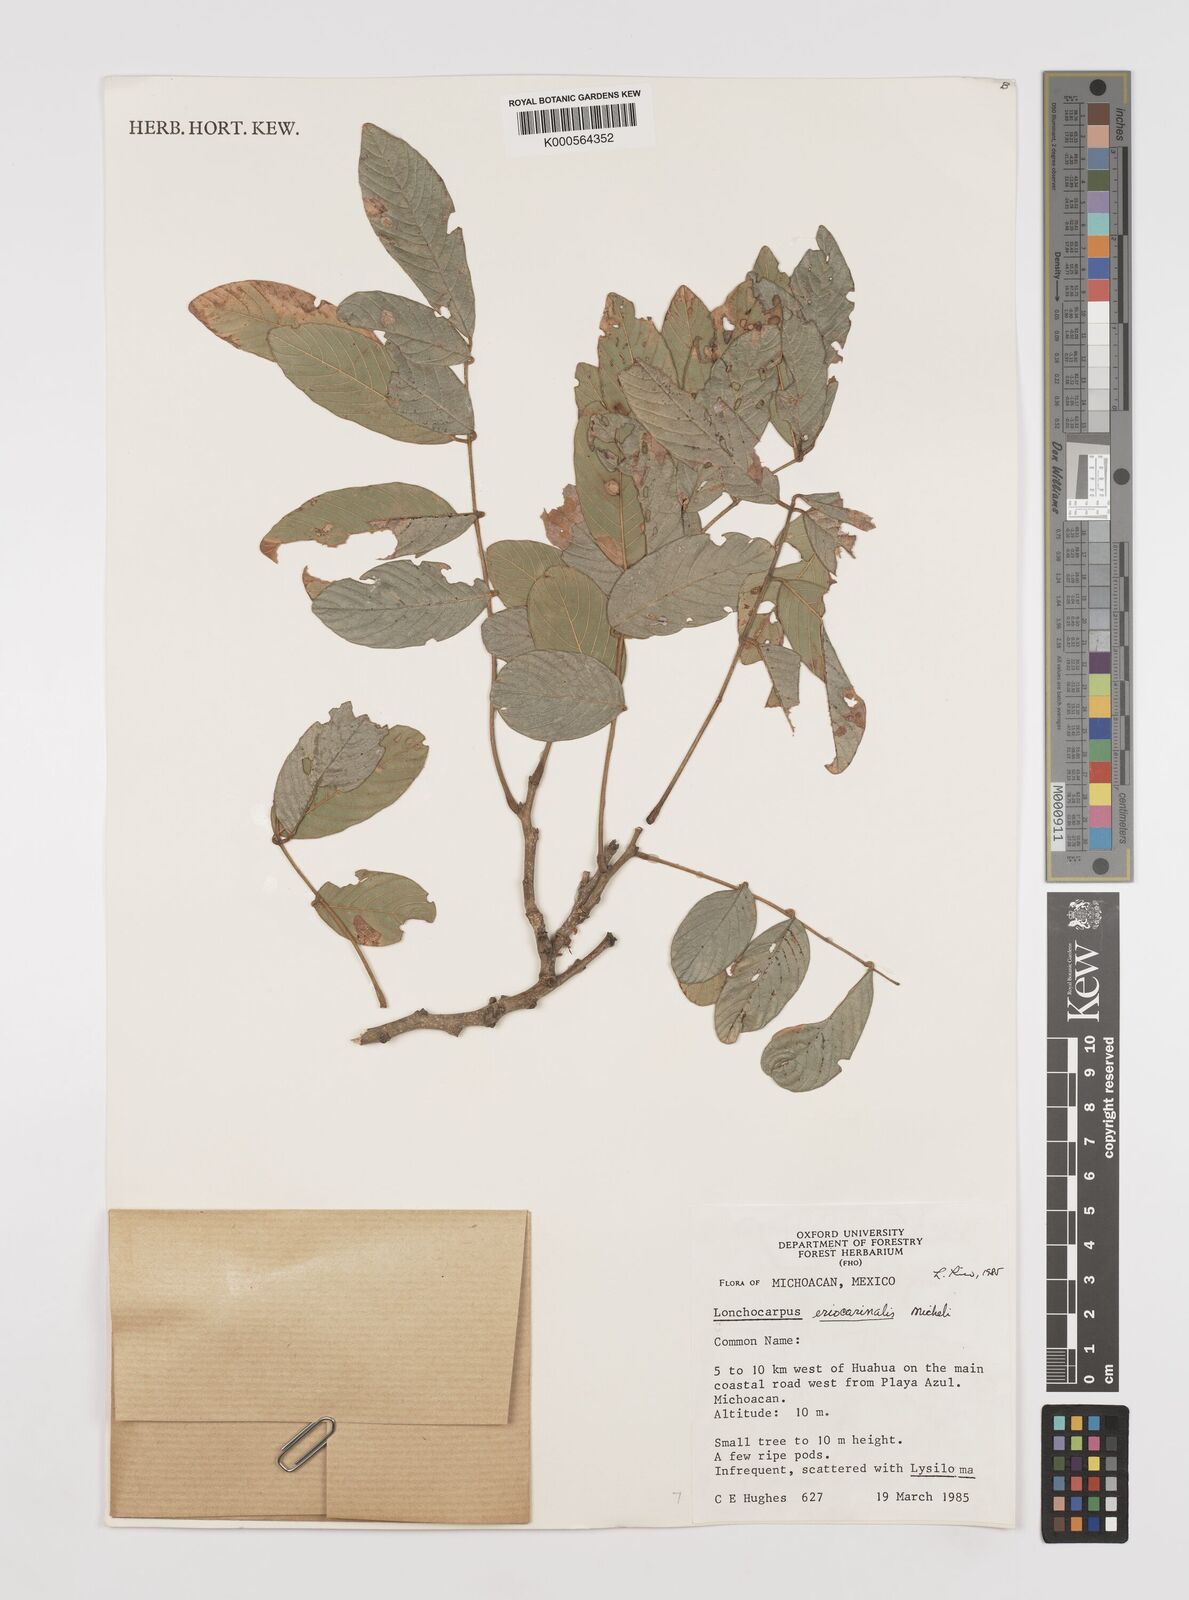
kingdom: Plantae
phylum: Tracheophyta
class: Magnoliopsida
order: Fabales
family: Fabaceae
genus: Lonchocarpus
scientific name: Lonchocarpus eriocarinalis
